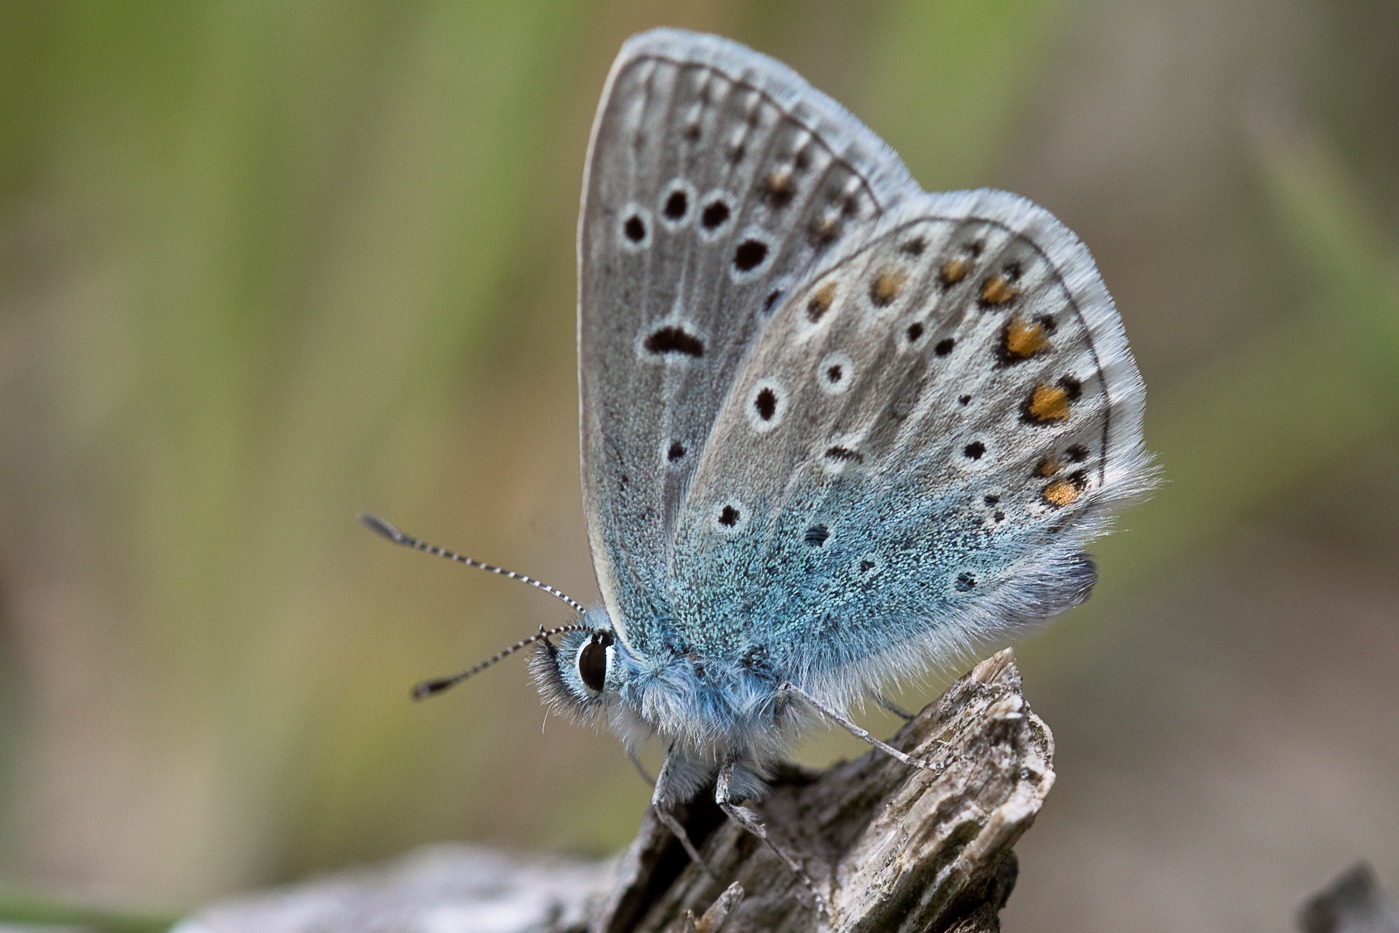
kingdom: Animalia
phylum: Arthropoda
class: Insecta
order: Lepidoptera
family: Lycaenidae
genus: Polyommatus
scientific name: Polyommatus icarus
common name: Almindelig blåfugl
